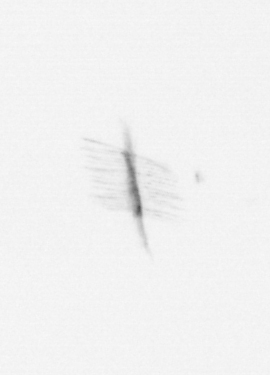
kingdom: Chromista
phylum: Ochrophyta
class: Bacillariophyceae
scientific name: Bacillariophyceae
